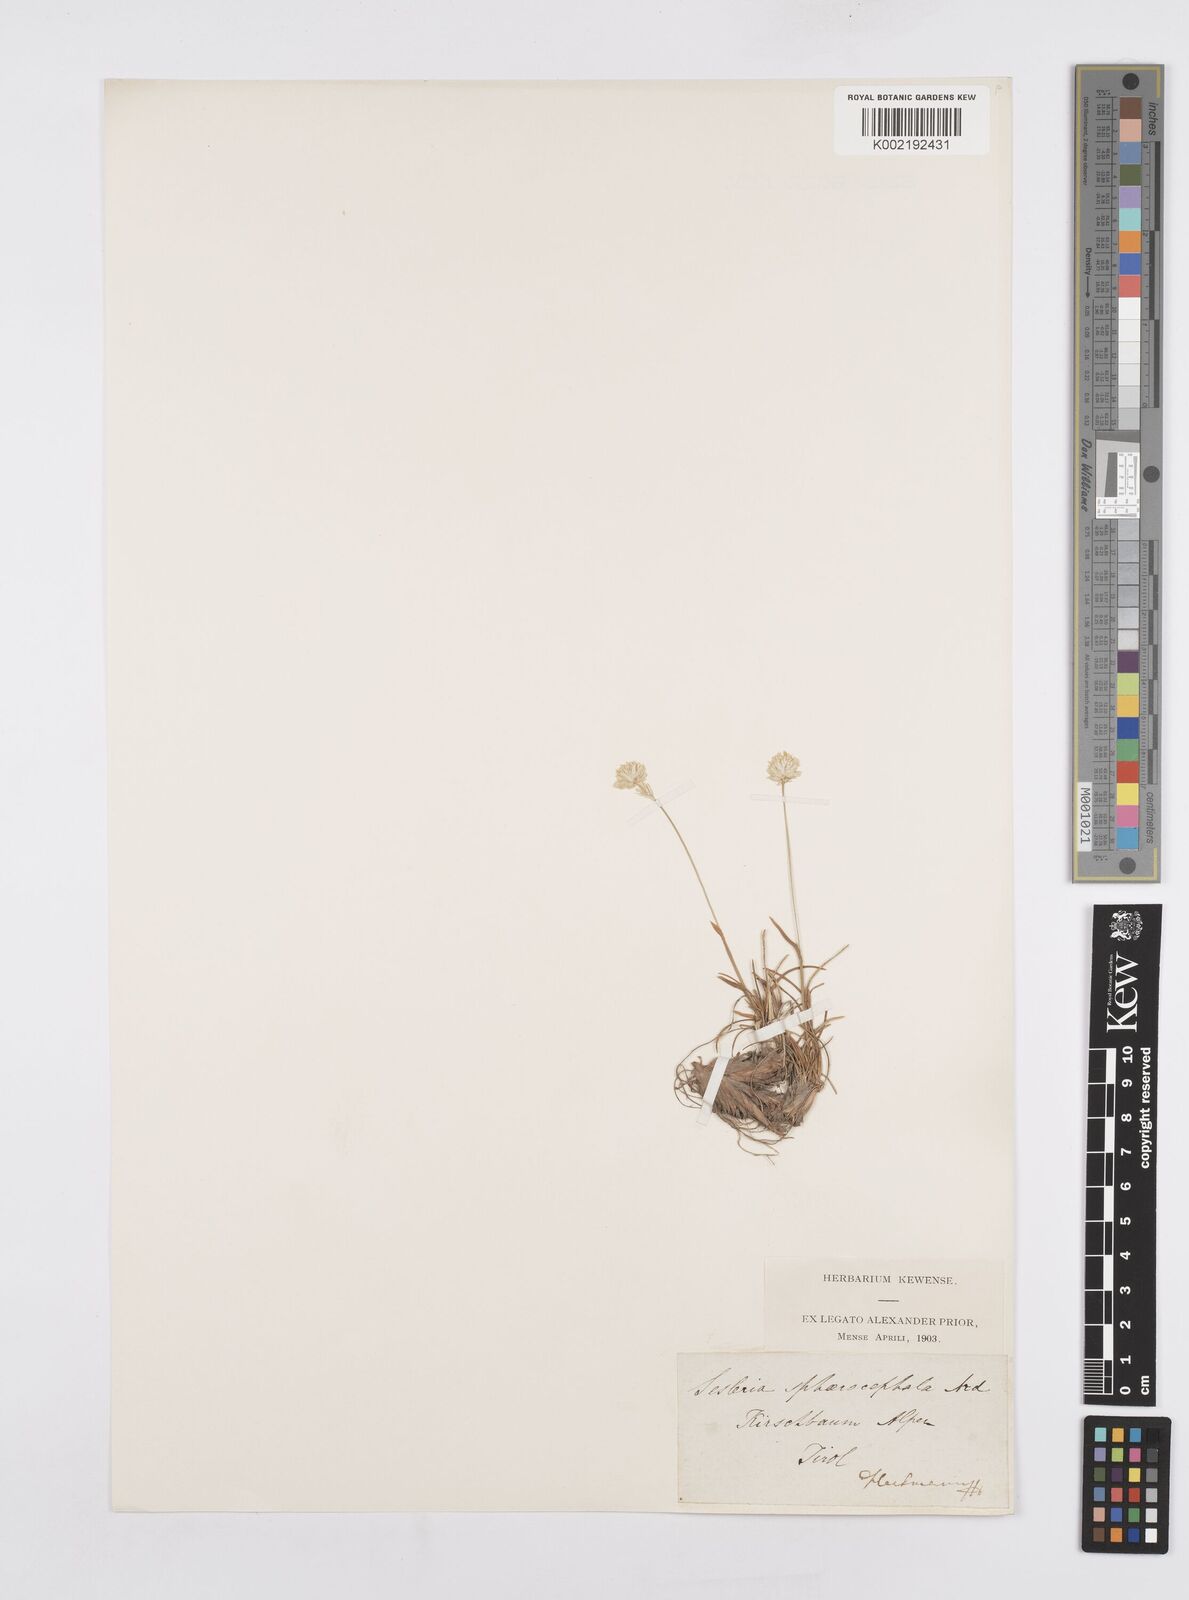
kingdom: Plantae
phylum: Tracheophyta
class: Liliopsida
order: Poales
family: Poaceae
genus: Sesleriella
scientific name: Sesleriella sphaerocephala
